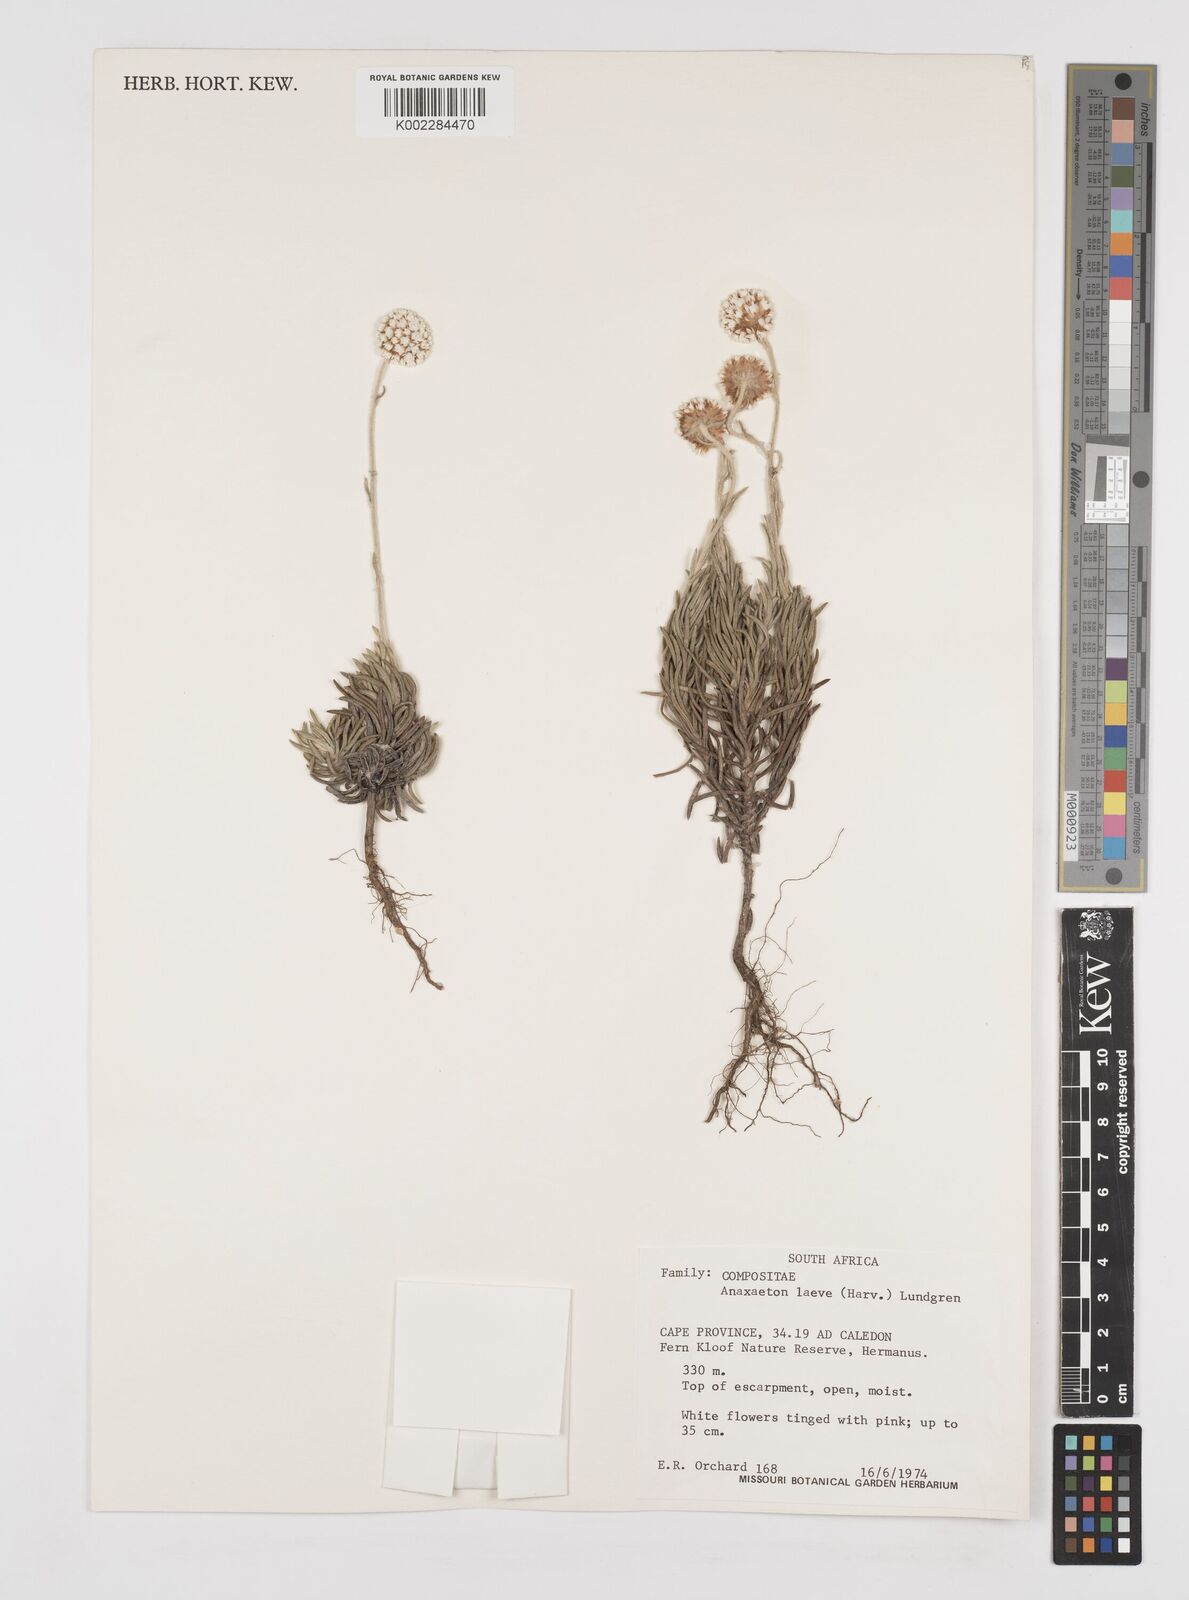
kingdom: Plantae
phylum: Tracheophyta
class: Magnoliopsida
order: Asterales
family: Asteraceae
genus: Anaxeton
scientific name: Anaxeton laeve
